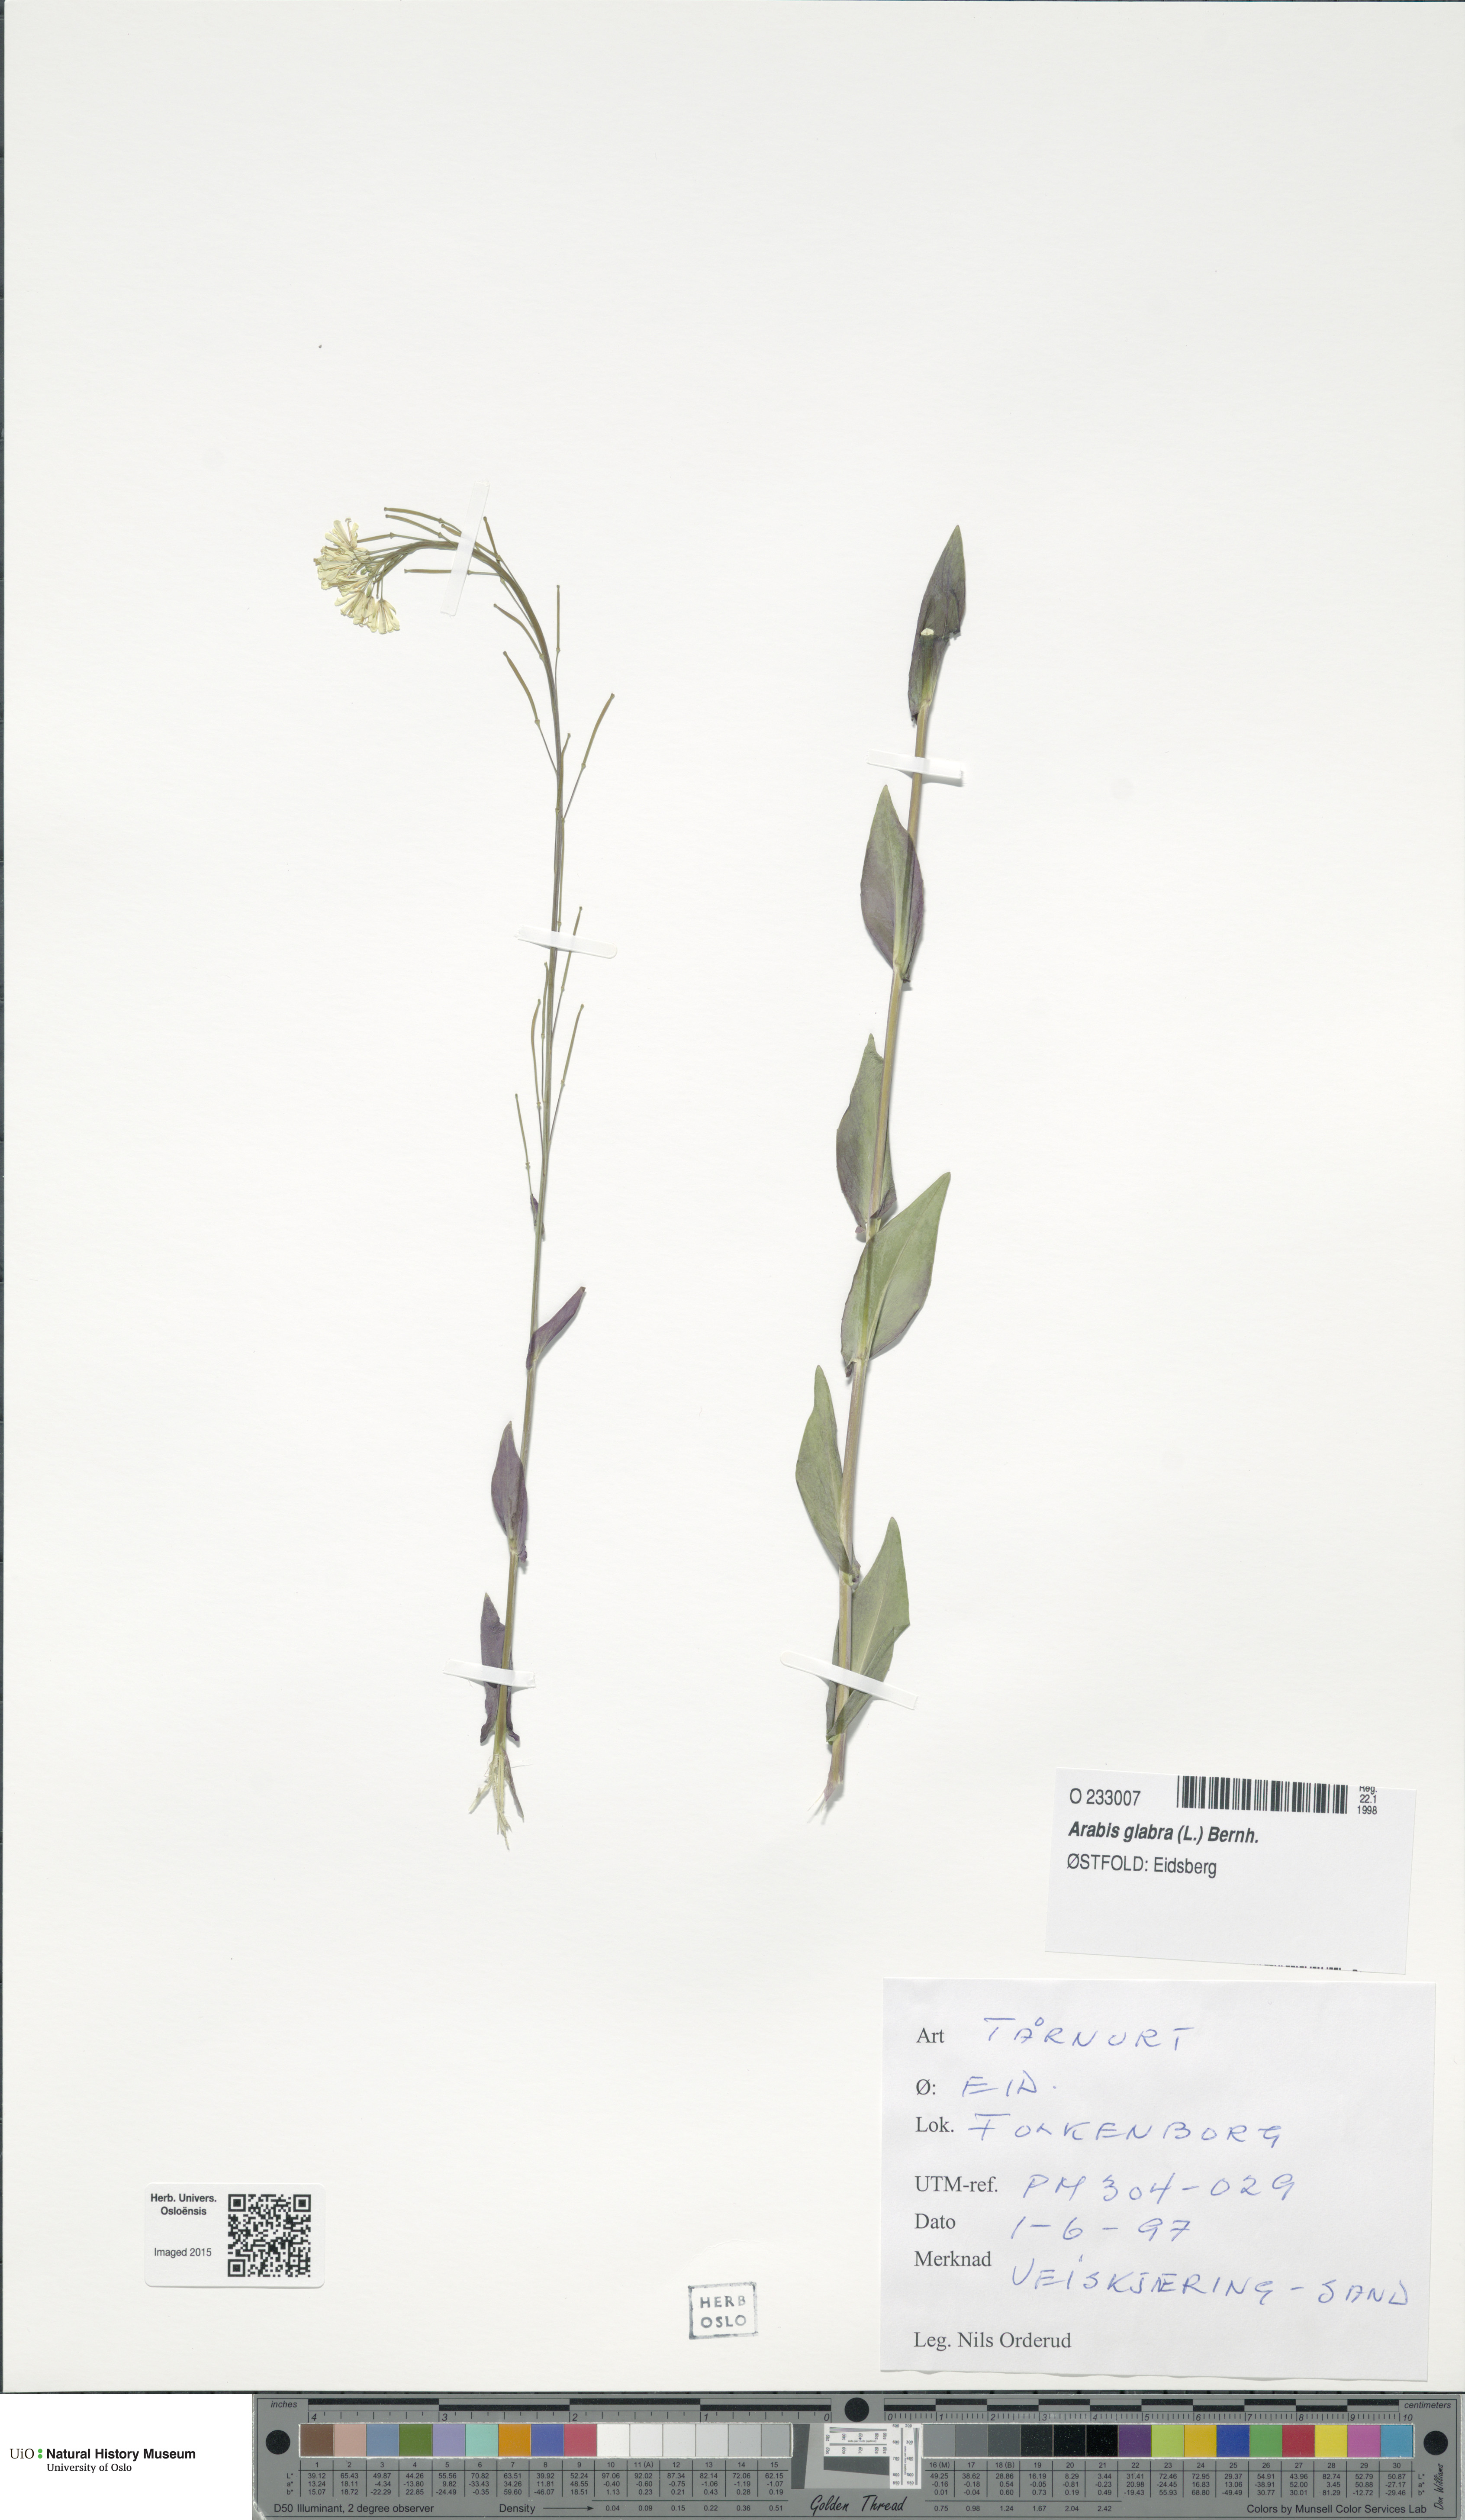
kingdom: Plantae
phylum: Tracheophyta
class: Magnoliopsida
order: Brassicales
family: Brassicaceae
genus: Turritis
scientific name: Turritis glabra
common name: Tower rockcress
